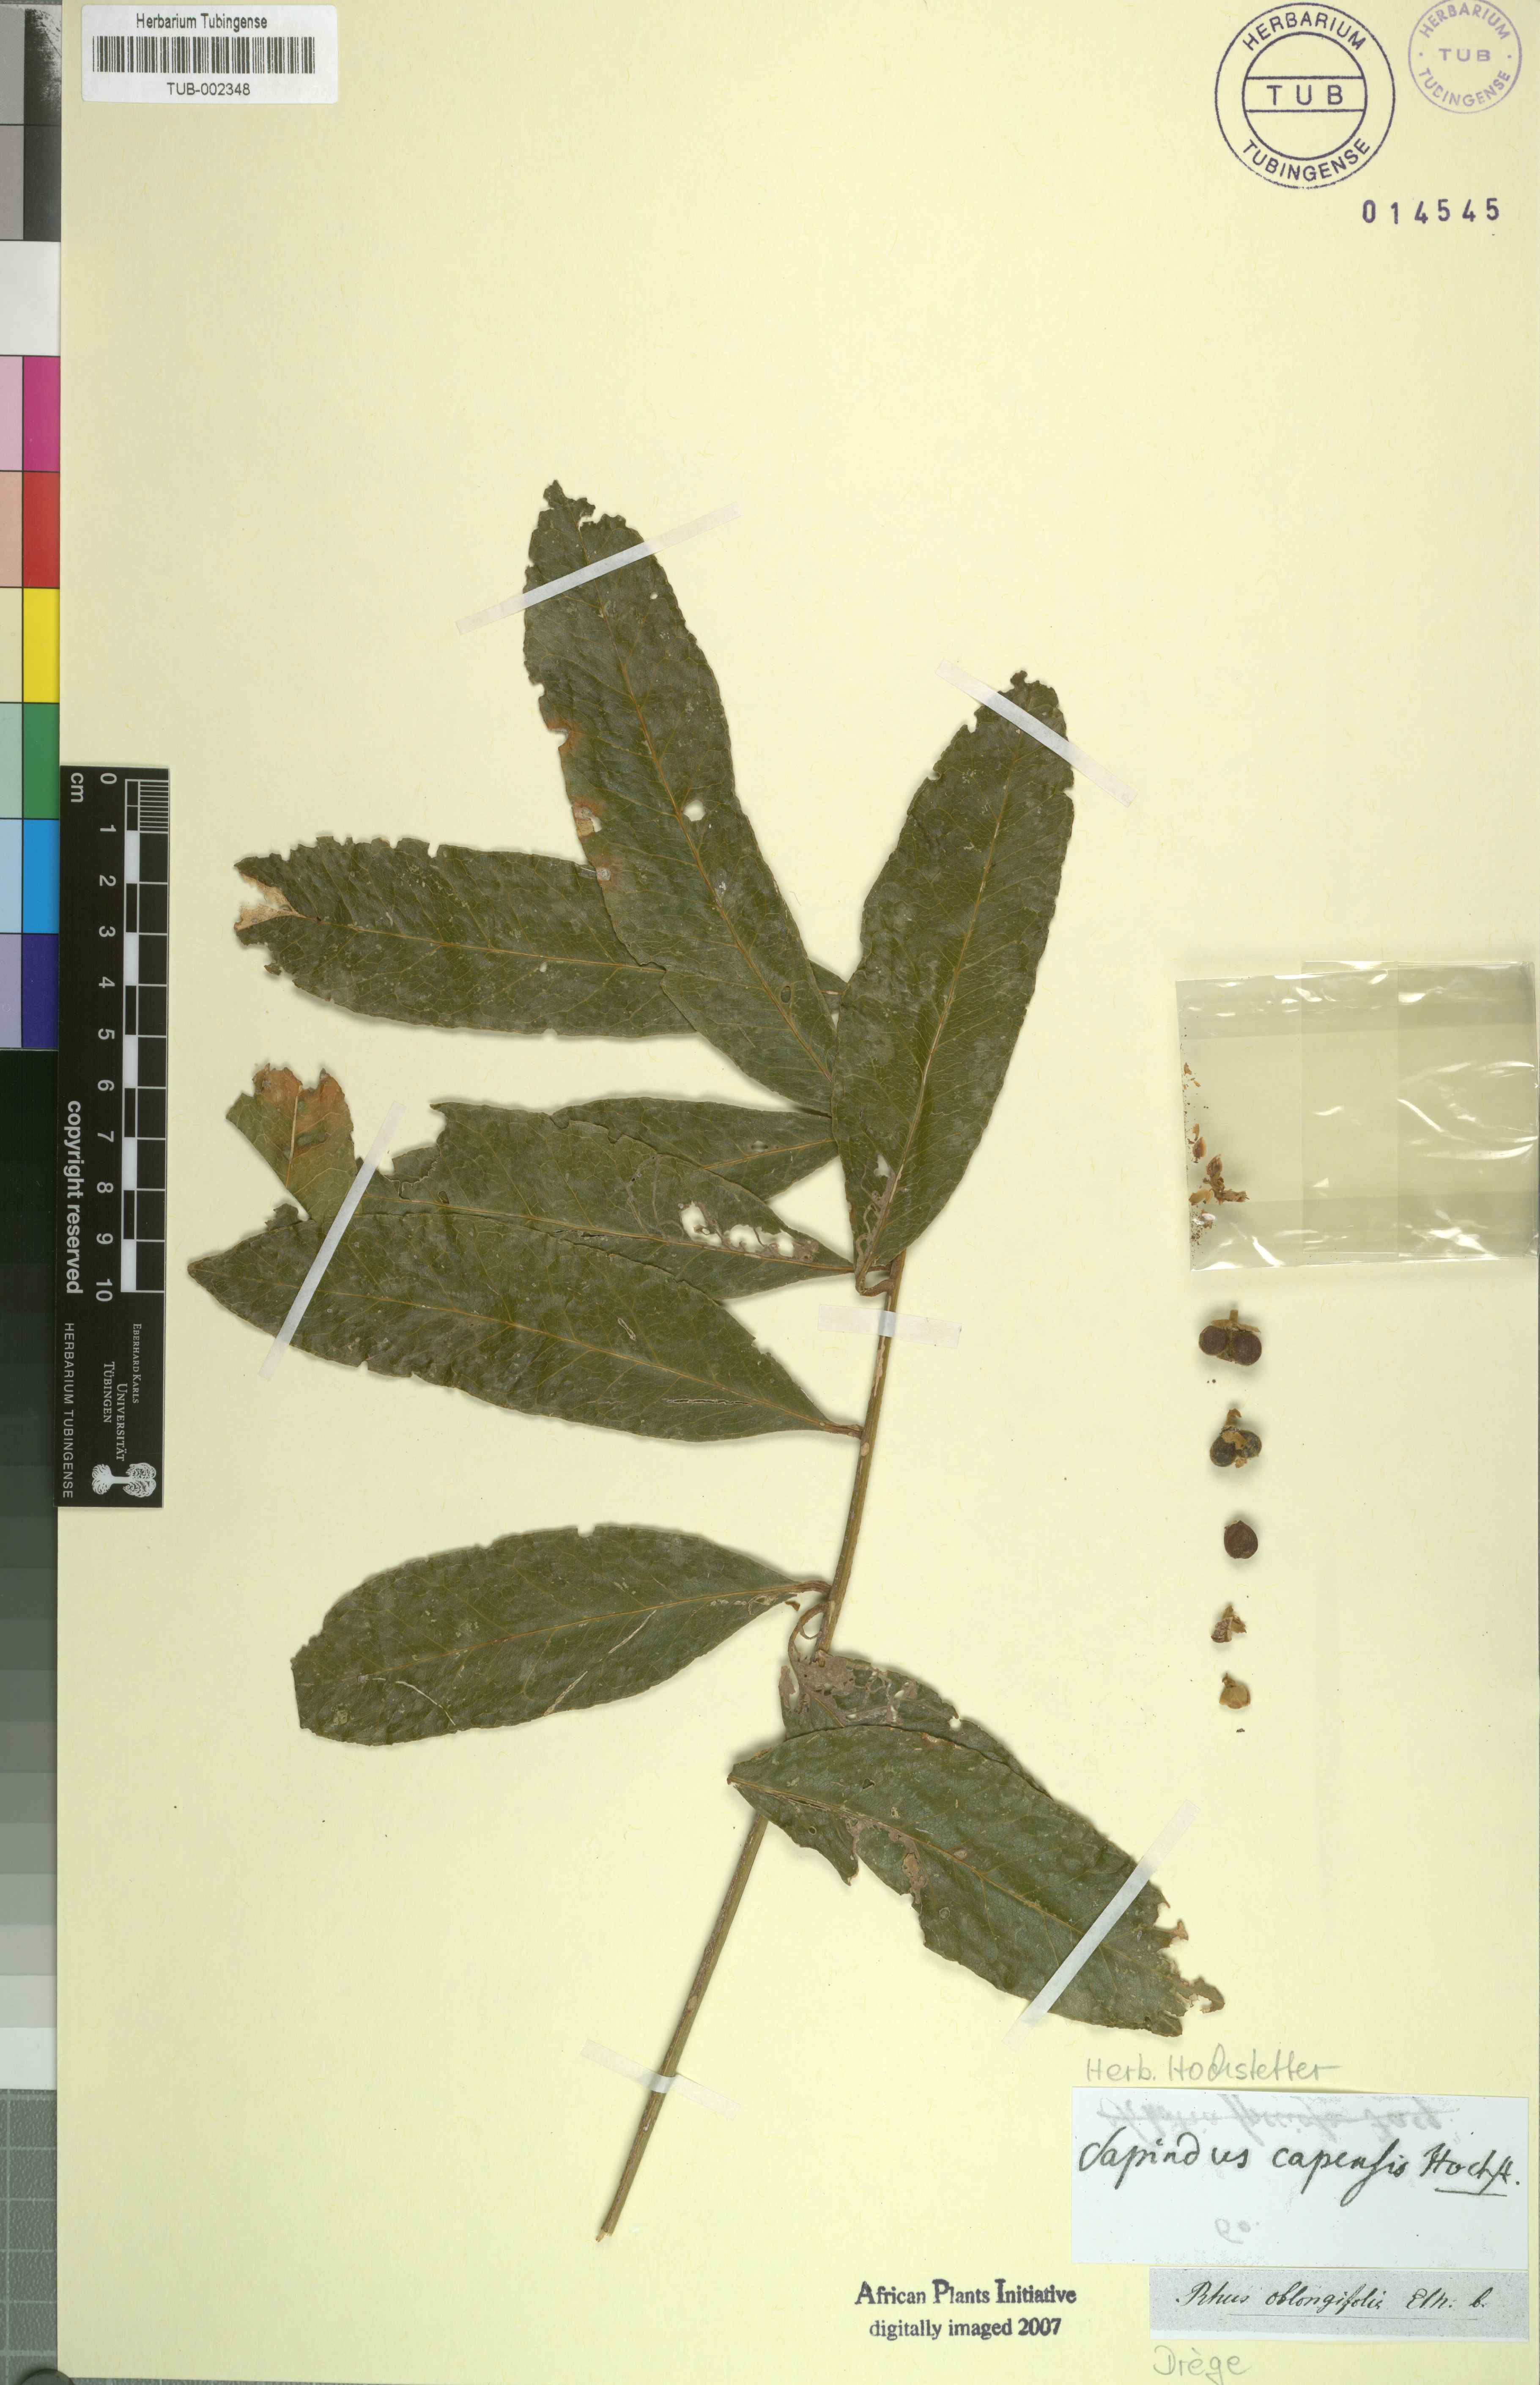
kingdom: Plantae
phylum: Tracheophyta
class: Magnoliopsida
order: Sapindales
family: Sapindaceae
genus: Deinbollia
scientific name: Deinbollia oblongifolia
